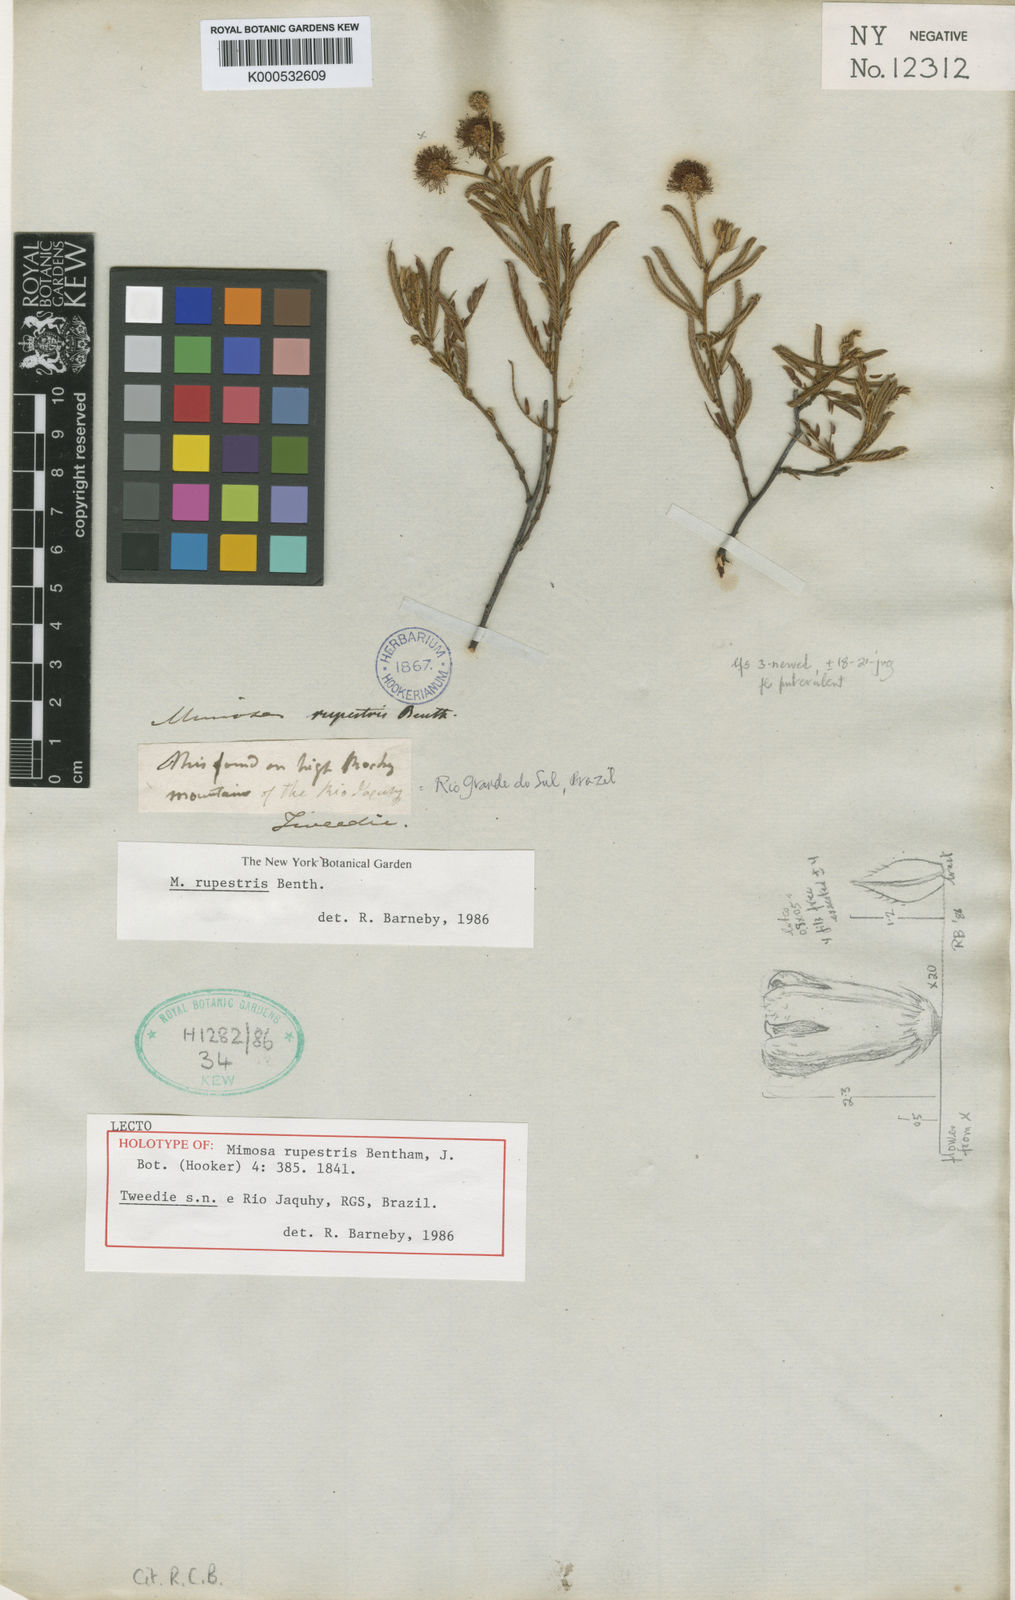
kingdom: Plantae
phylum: Tracheophyta
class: Magnoliopsida
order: Fabales
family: Fabaceae
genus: Mimosa
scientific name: Mimosa rupestris
